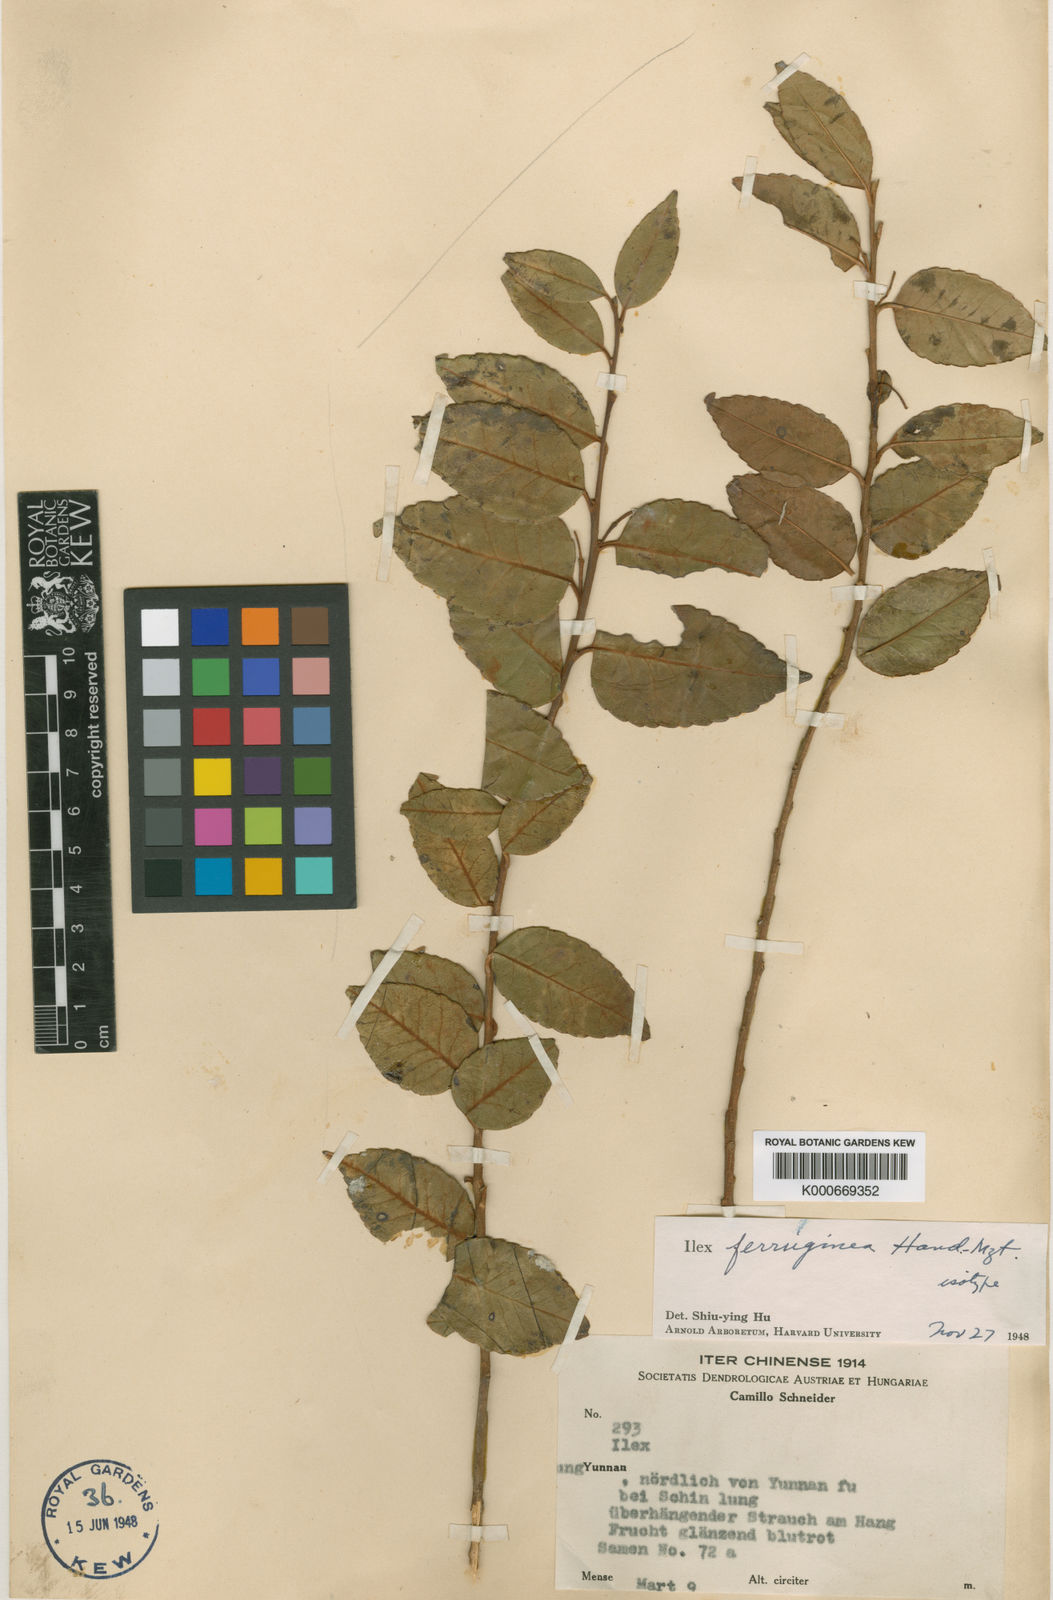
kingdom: Plantae
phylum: Tracheophyta
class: Magnoliopsida
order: Aquifoliales
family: Aquifoliaceae
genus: Ilex
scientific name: Ilex ferruginea
